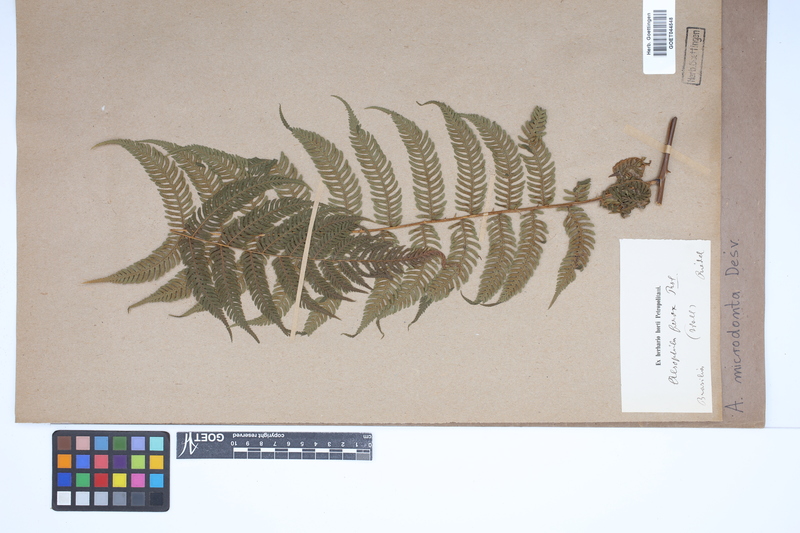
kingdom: Plantae
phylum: Tracheophyta
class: Polypodiopsida
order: Cyatheales
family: Cyatheaceae
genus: Cyathea
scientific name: Cyathea microdonta
